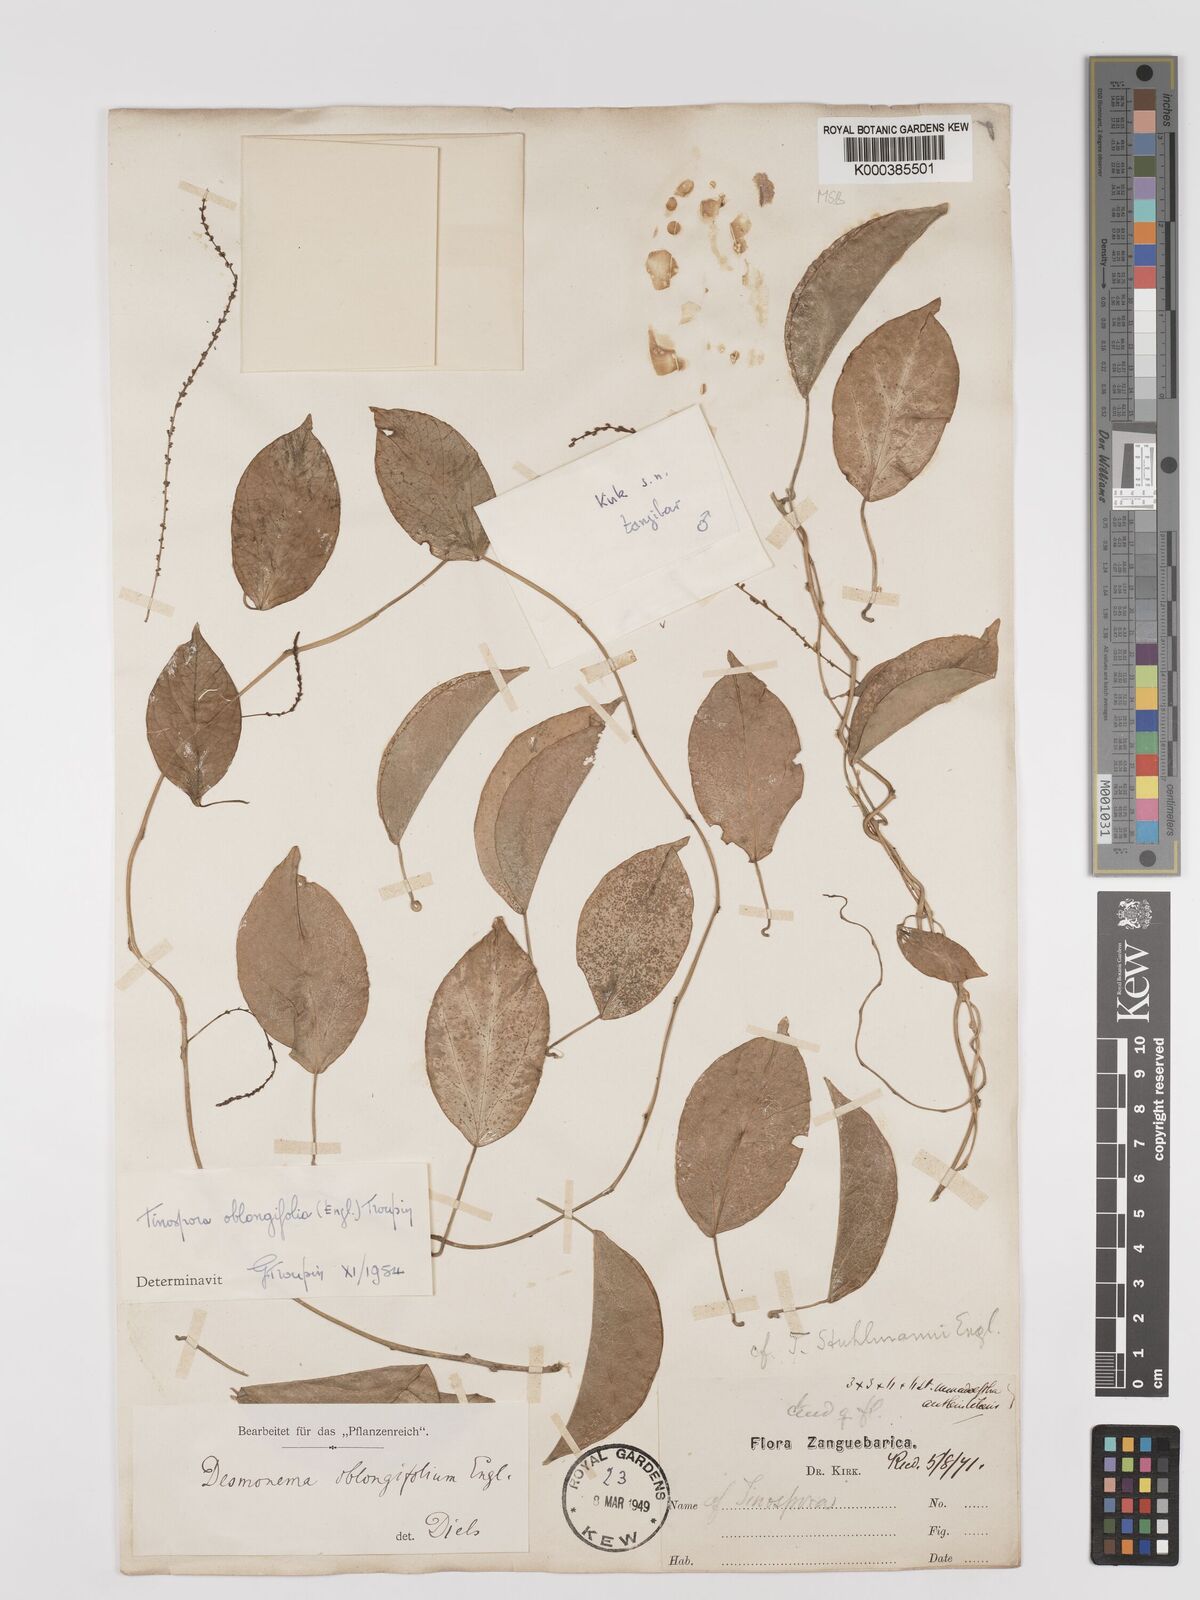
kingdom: Plantae
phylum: Tracheophyta
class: Magnoliopsida
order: Ranunculales
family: Menispermaceae
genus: Tinospora
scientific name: Tinospora oblongifolia
